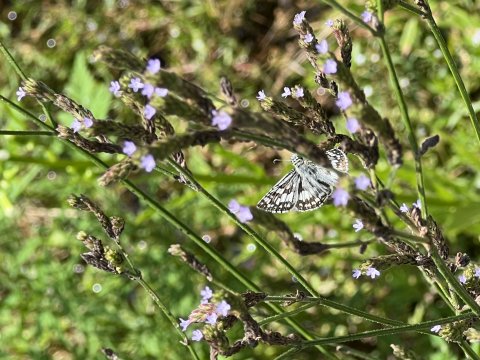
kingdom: Animalia
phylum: Arthropoda
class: Insecta
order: Lepidoptera
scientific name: Lepidoptera
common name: Butterflies
